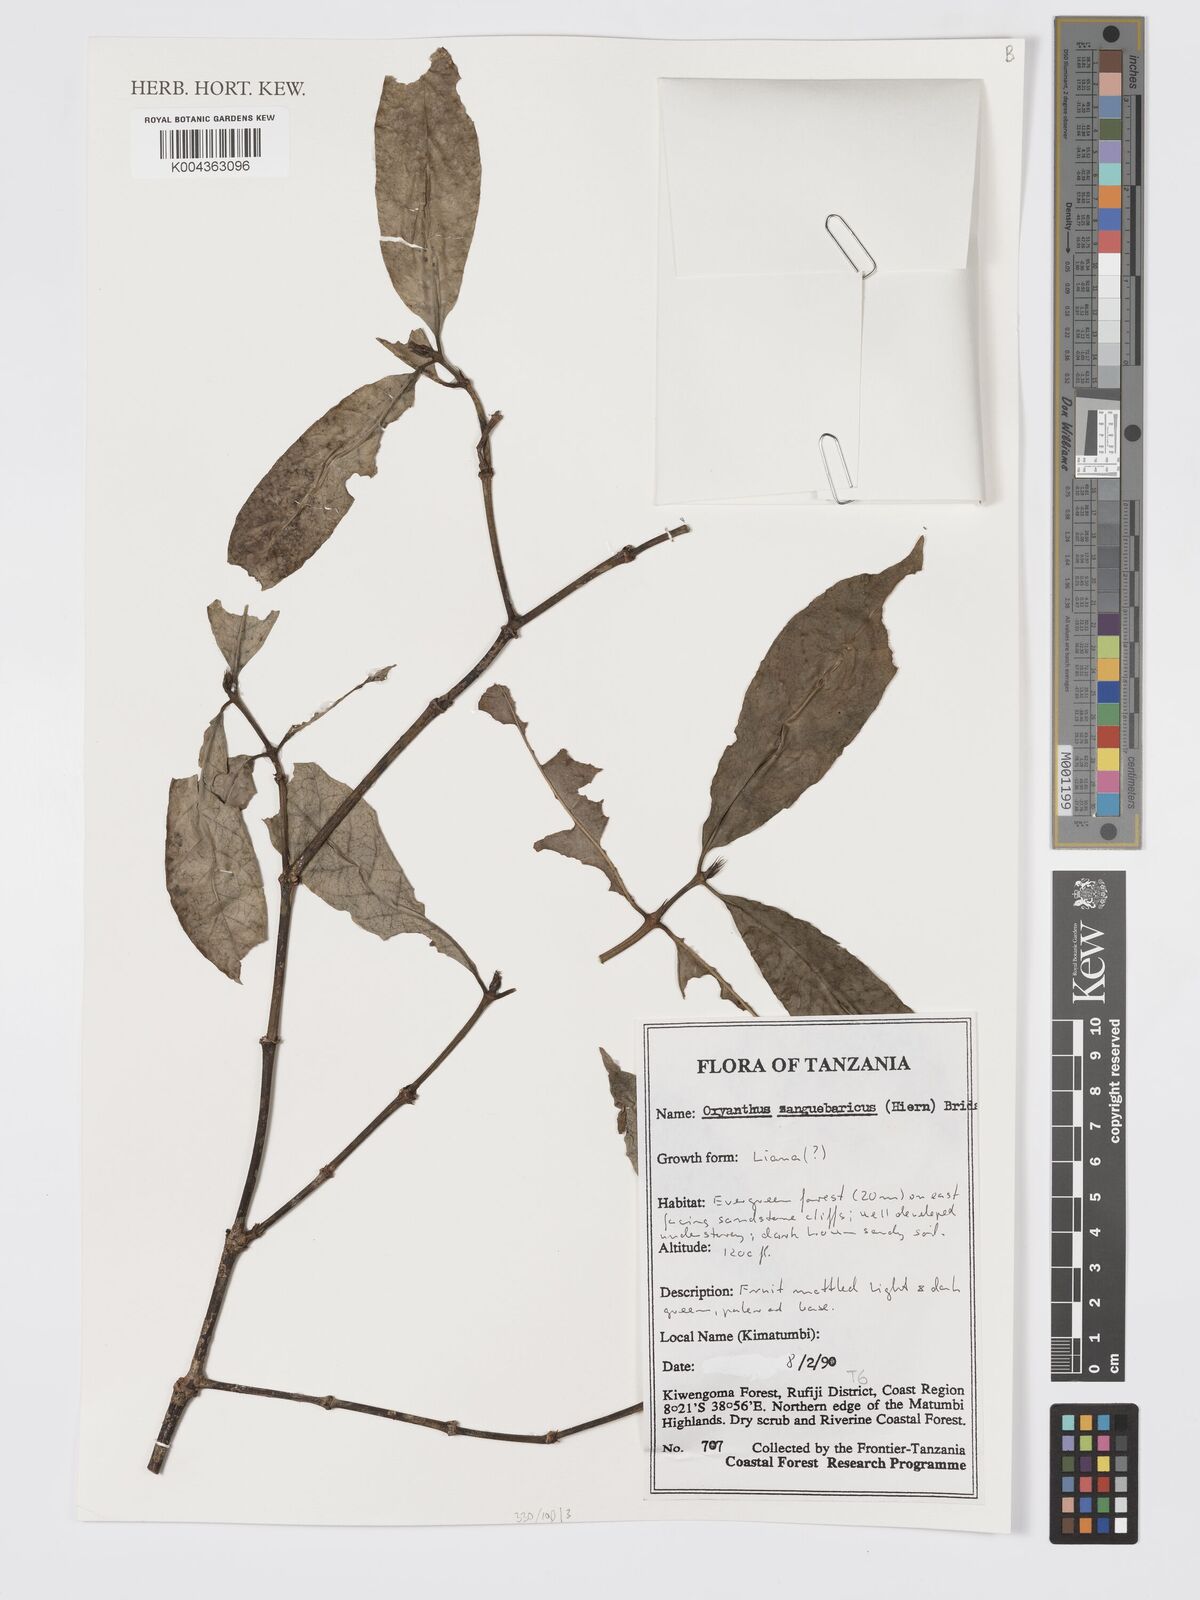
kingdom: Plantae
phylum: Tracheophyta
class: Magnoliopsida
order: Gentianales
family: Rubiaceae
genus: Oxyanthus
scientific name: Oxyanthus zanguebaricus
